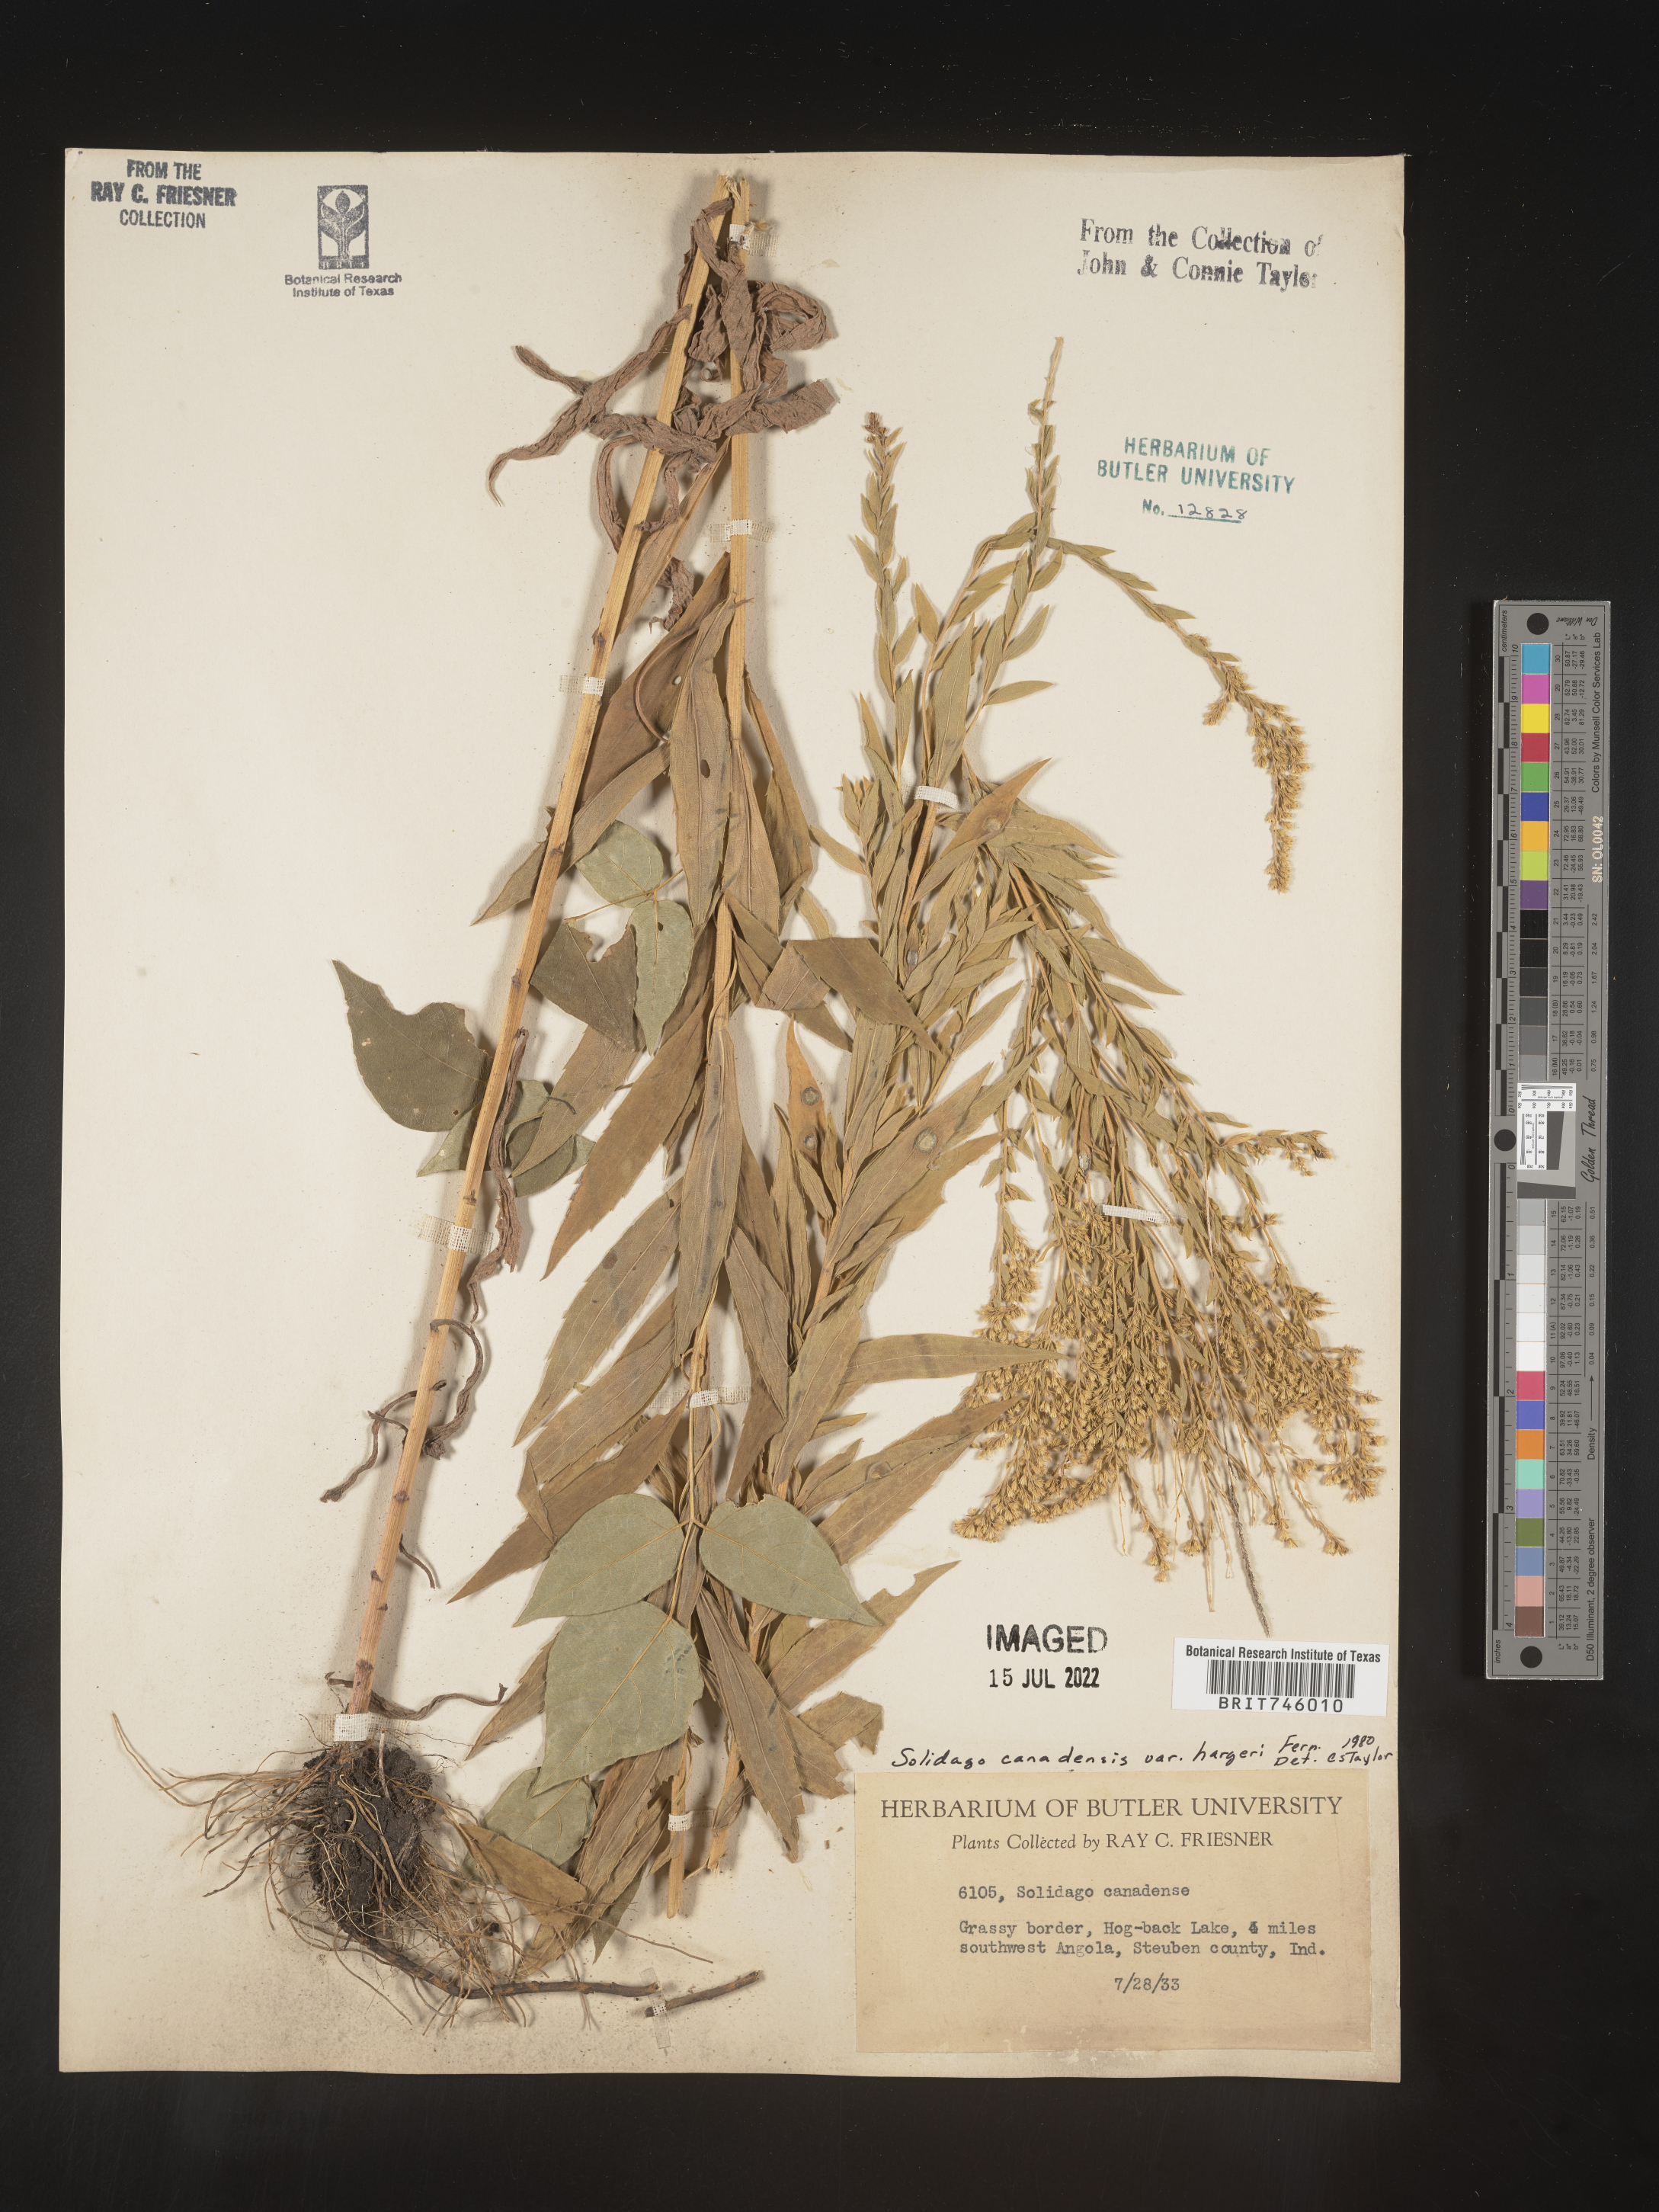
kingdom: Plantae
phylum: Tracheophyta
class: Magnoliopsida
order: Asterales
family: Asteraceae
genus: Solidago
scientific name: Solidago canadensis
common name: Canada goldenrod
